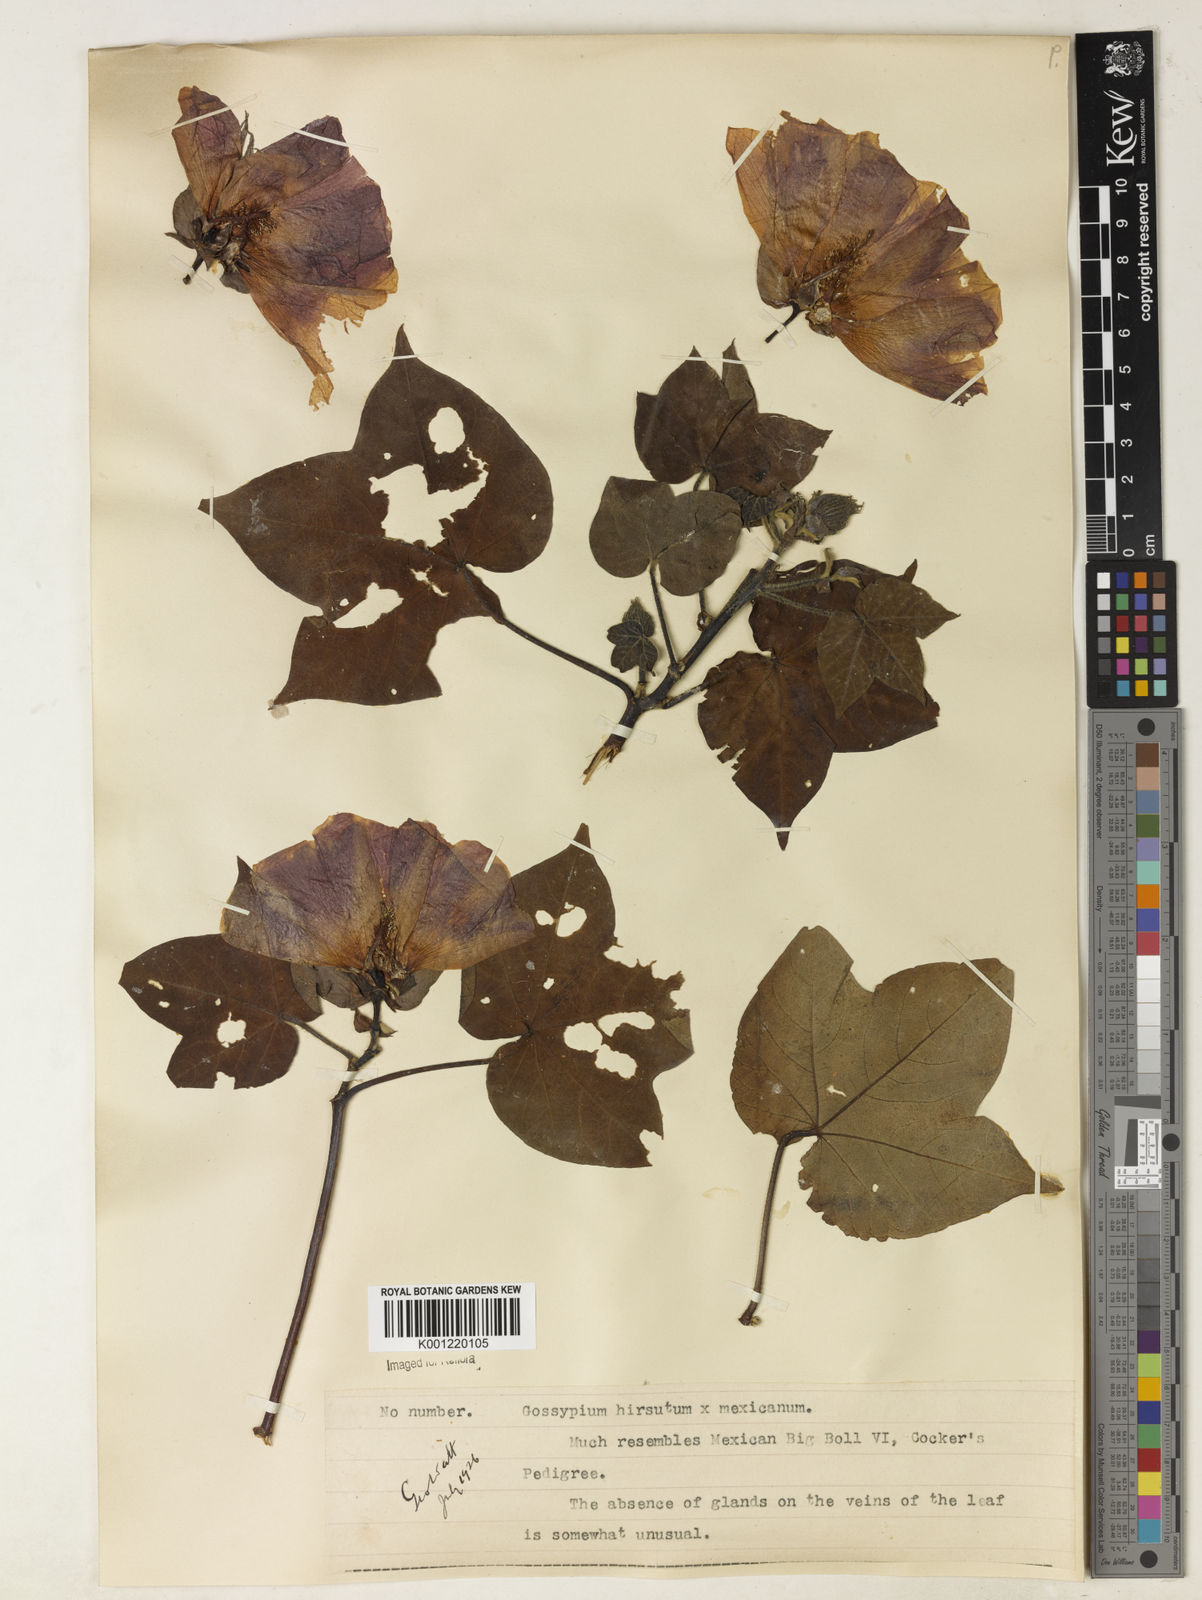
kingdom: Plantae
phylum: Tracheophyta
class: Magnoliopsida
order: Malvales
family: Malvaceae
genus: Gossypium
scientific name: Gossypium
